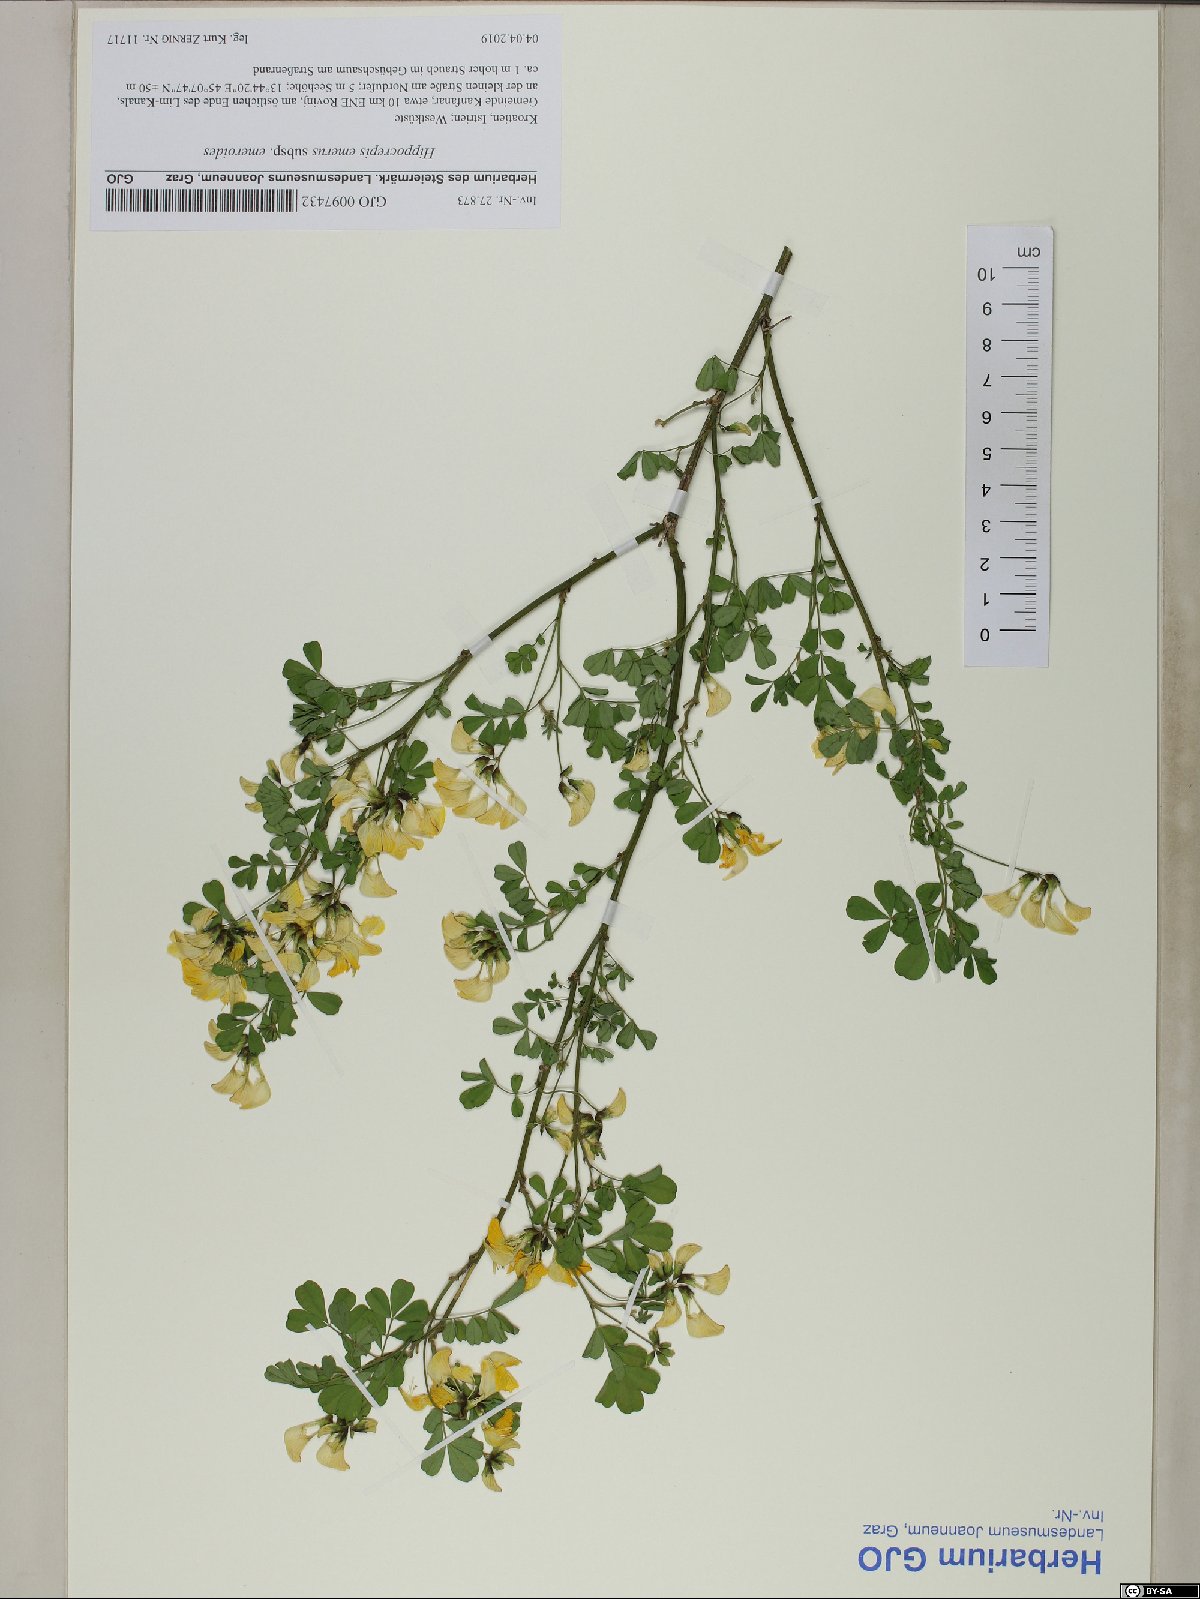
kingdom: Plantae
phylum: Tracheophyta
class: Magnoliopsida
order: Fabales
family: Fabaceae
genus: Hippocrepis
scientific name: Hippocrepis emerus
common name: Scorpion senna
